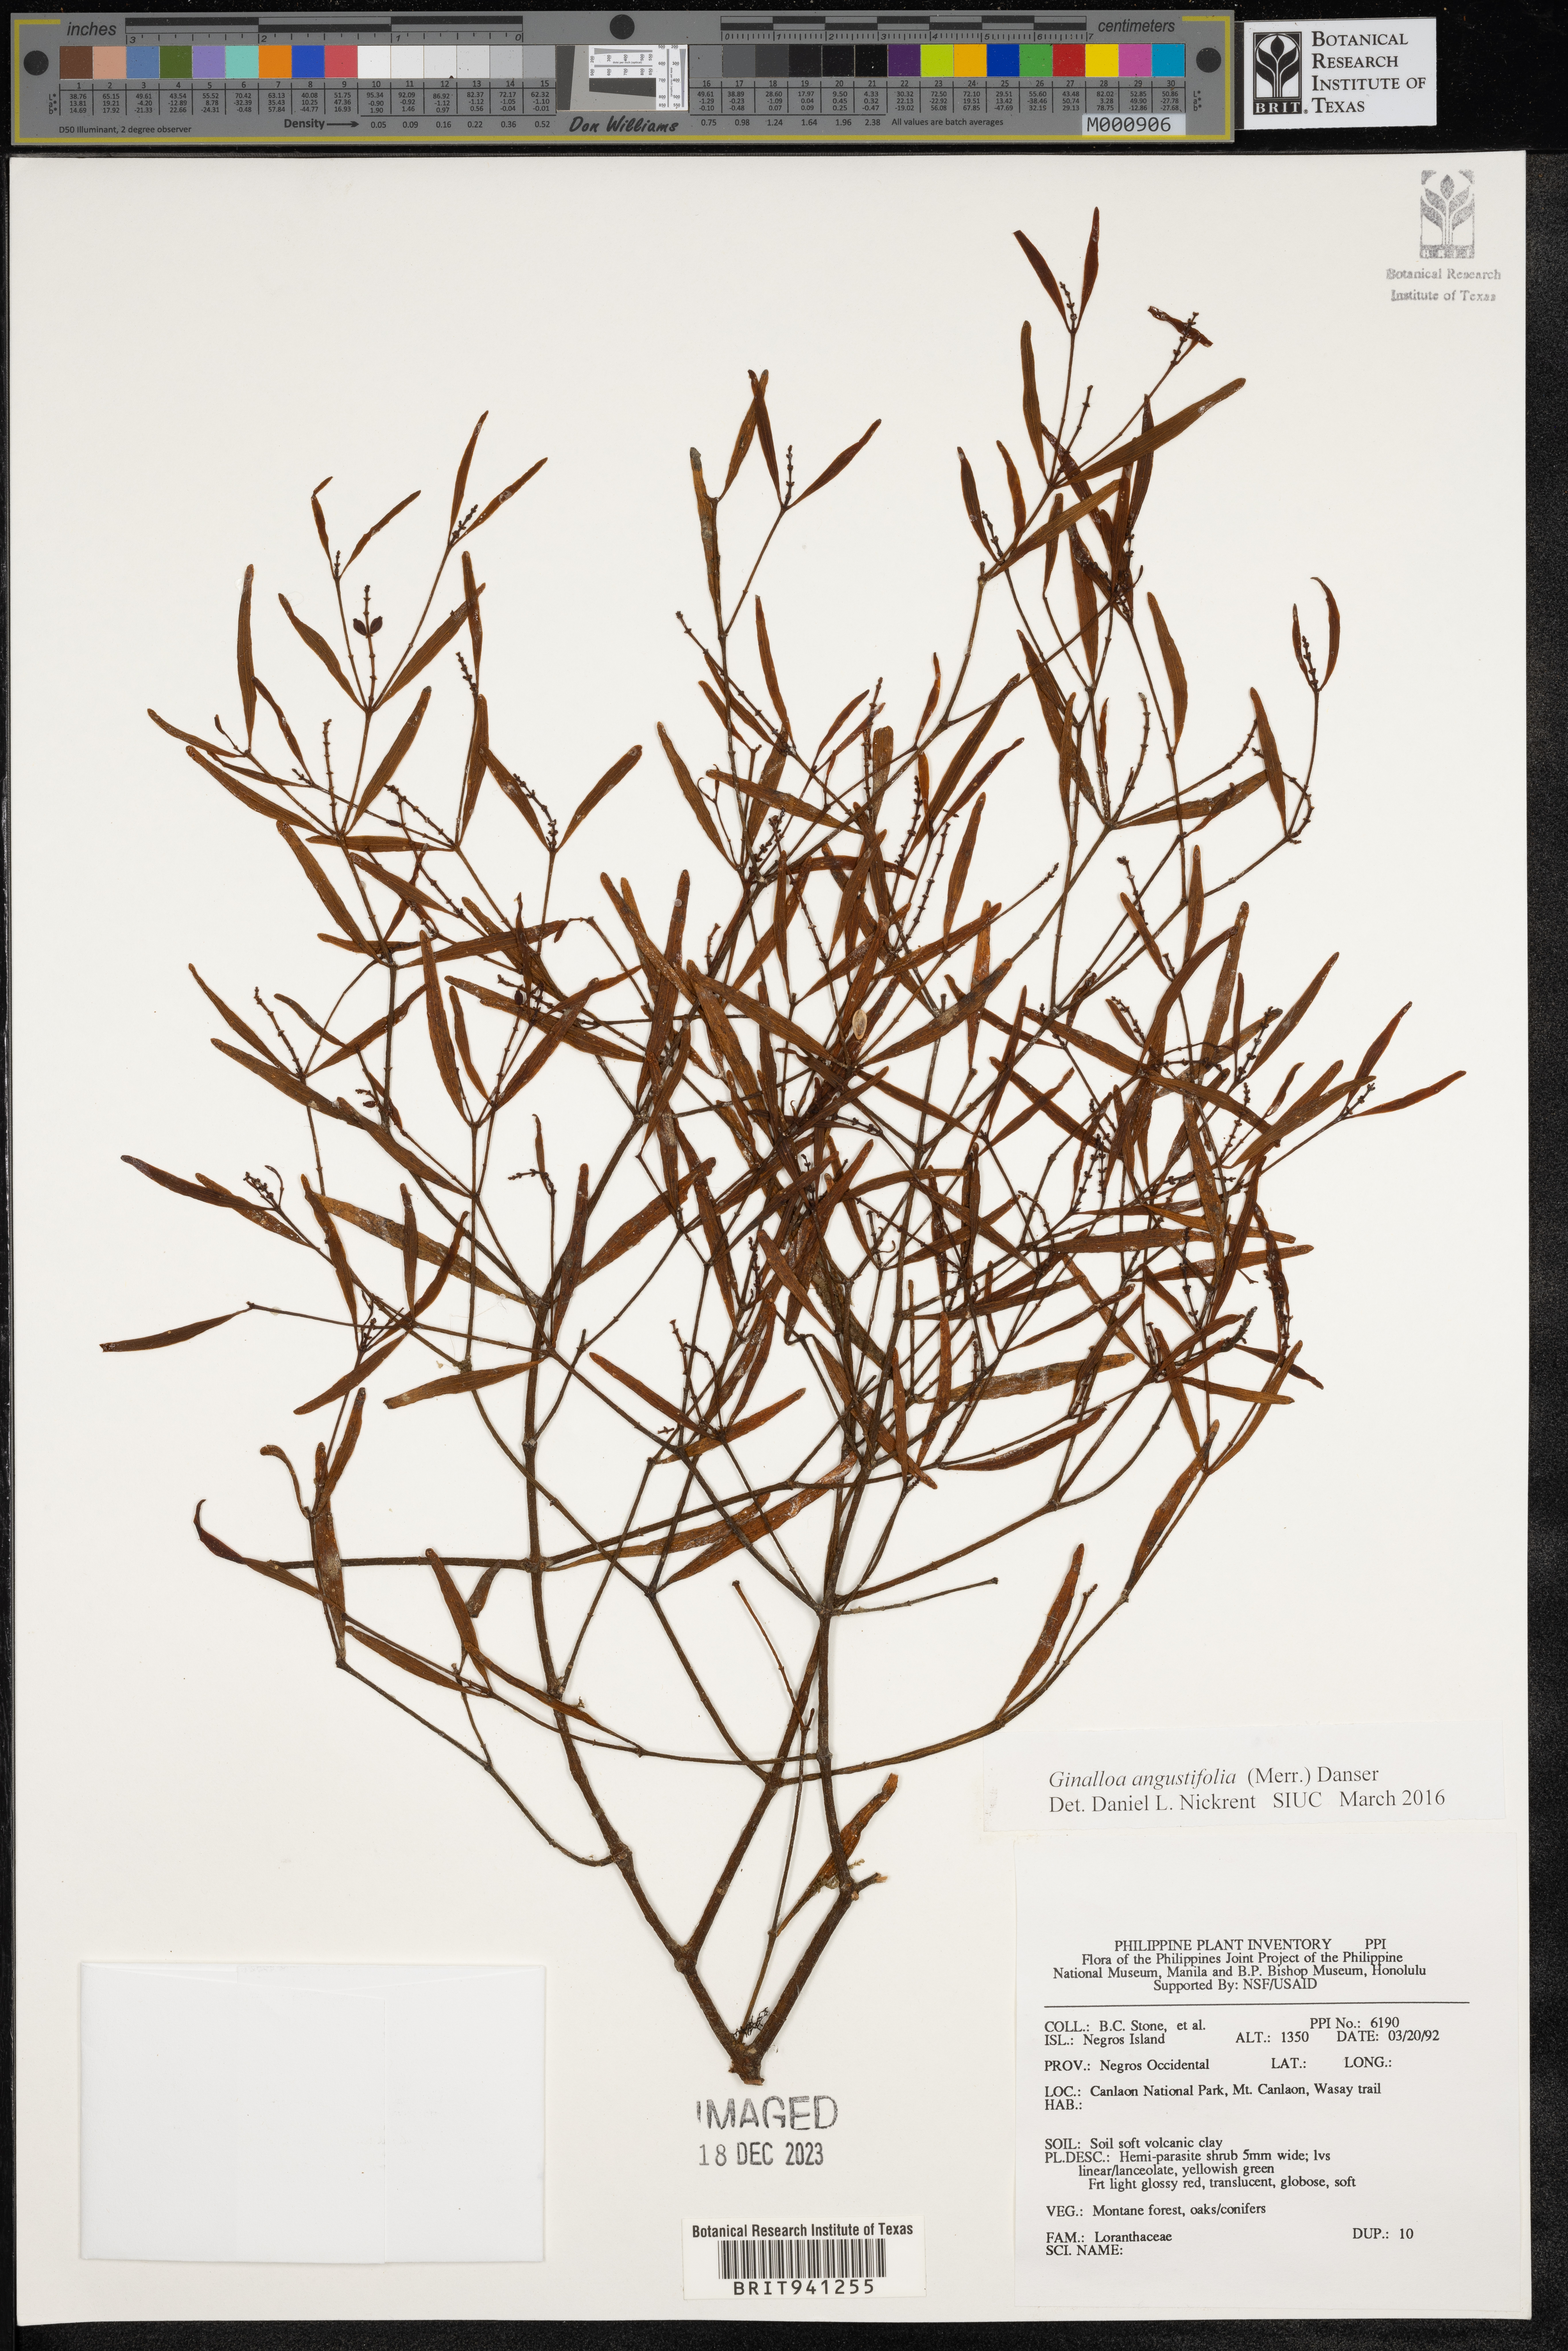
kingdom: Plantae
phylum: Tracheophyta
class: Magnoliopsida
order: Santalales
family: Viscaceae
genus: Ginalloa
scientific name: Ginalloa
